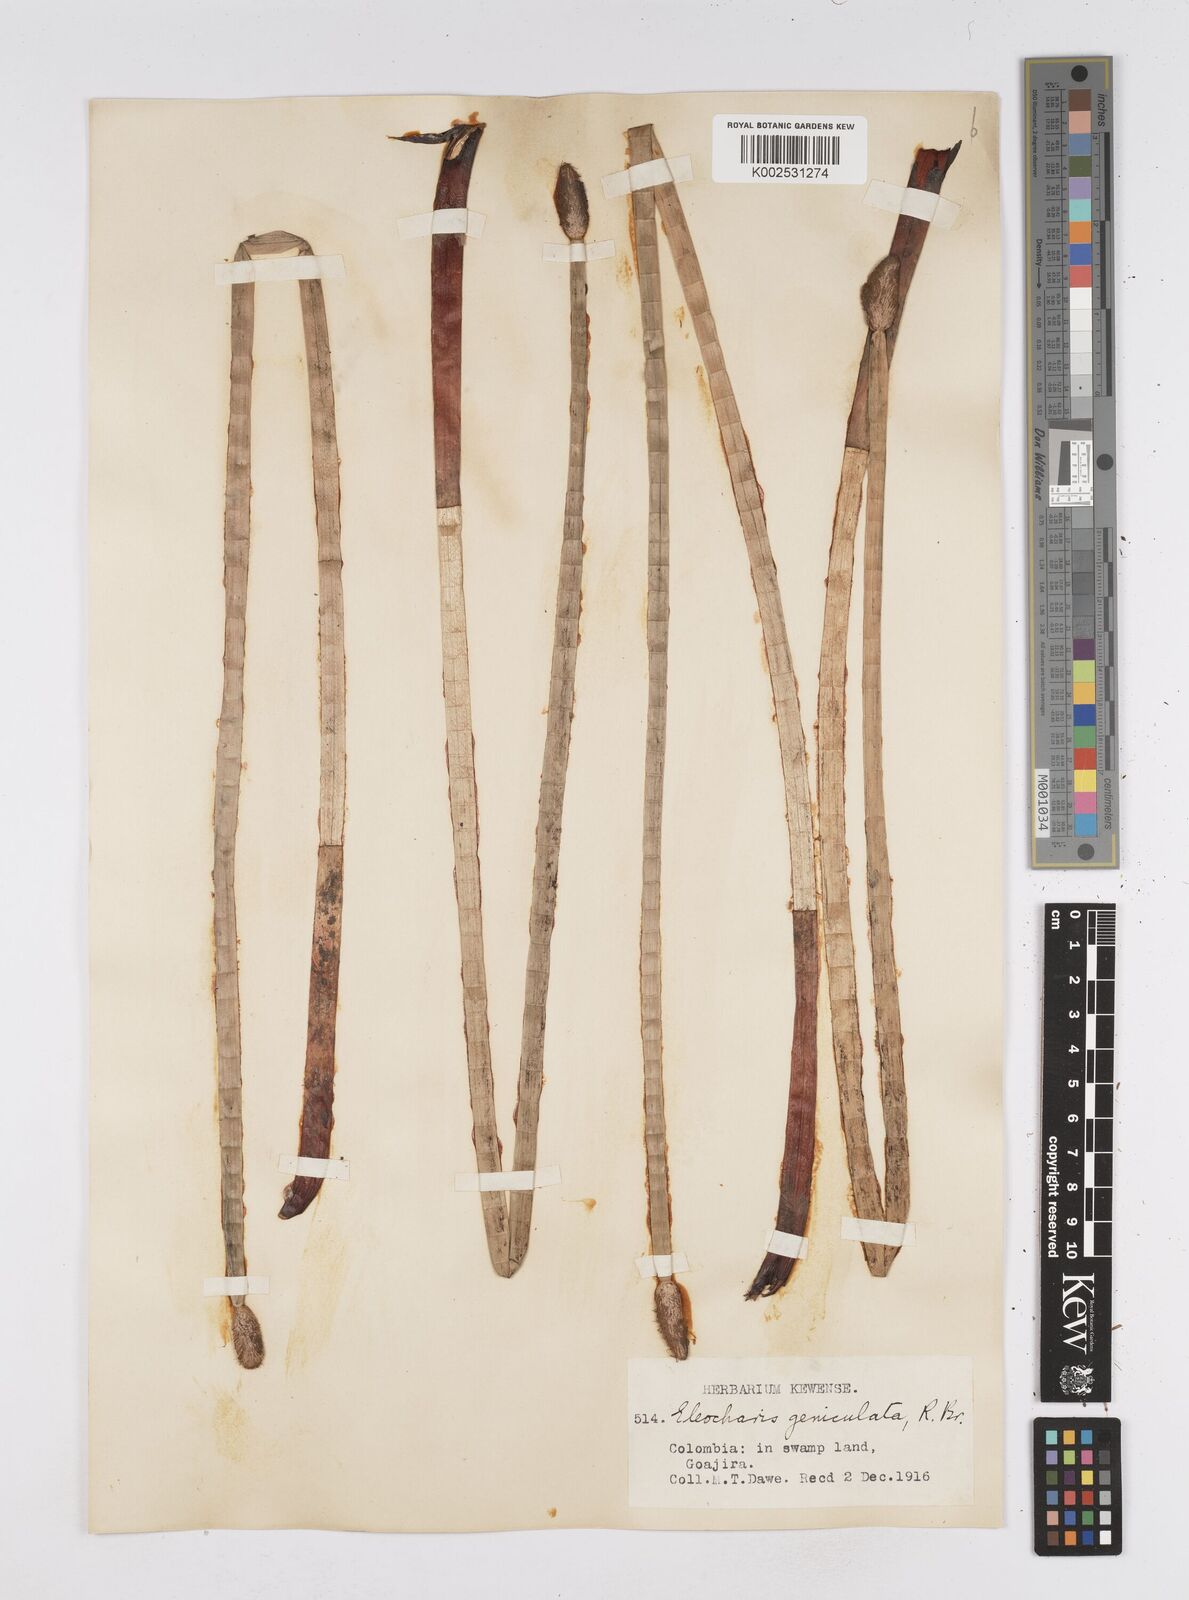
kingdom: Plantae
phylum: Tracheophyta
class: Liliopsida
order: Poales
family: Cyperaceae
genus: Eleocharis
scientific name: Eleocharis elegans
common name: Elegant spike-rush
